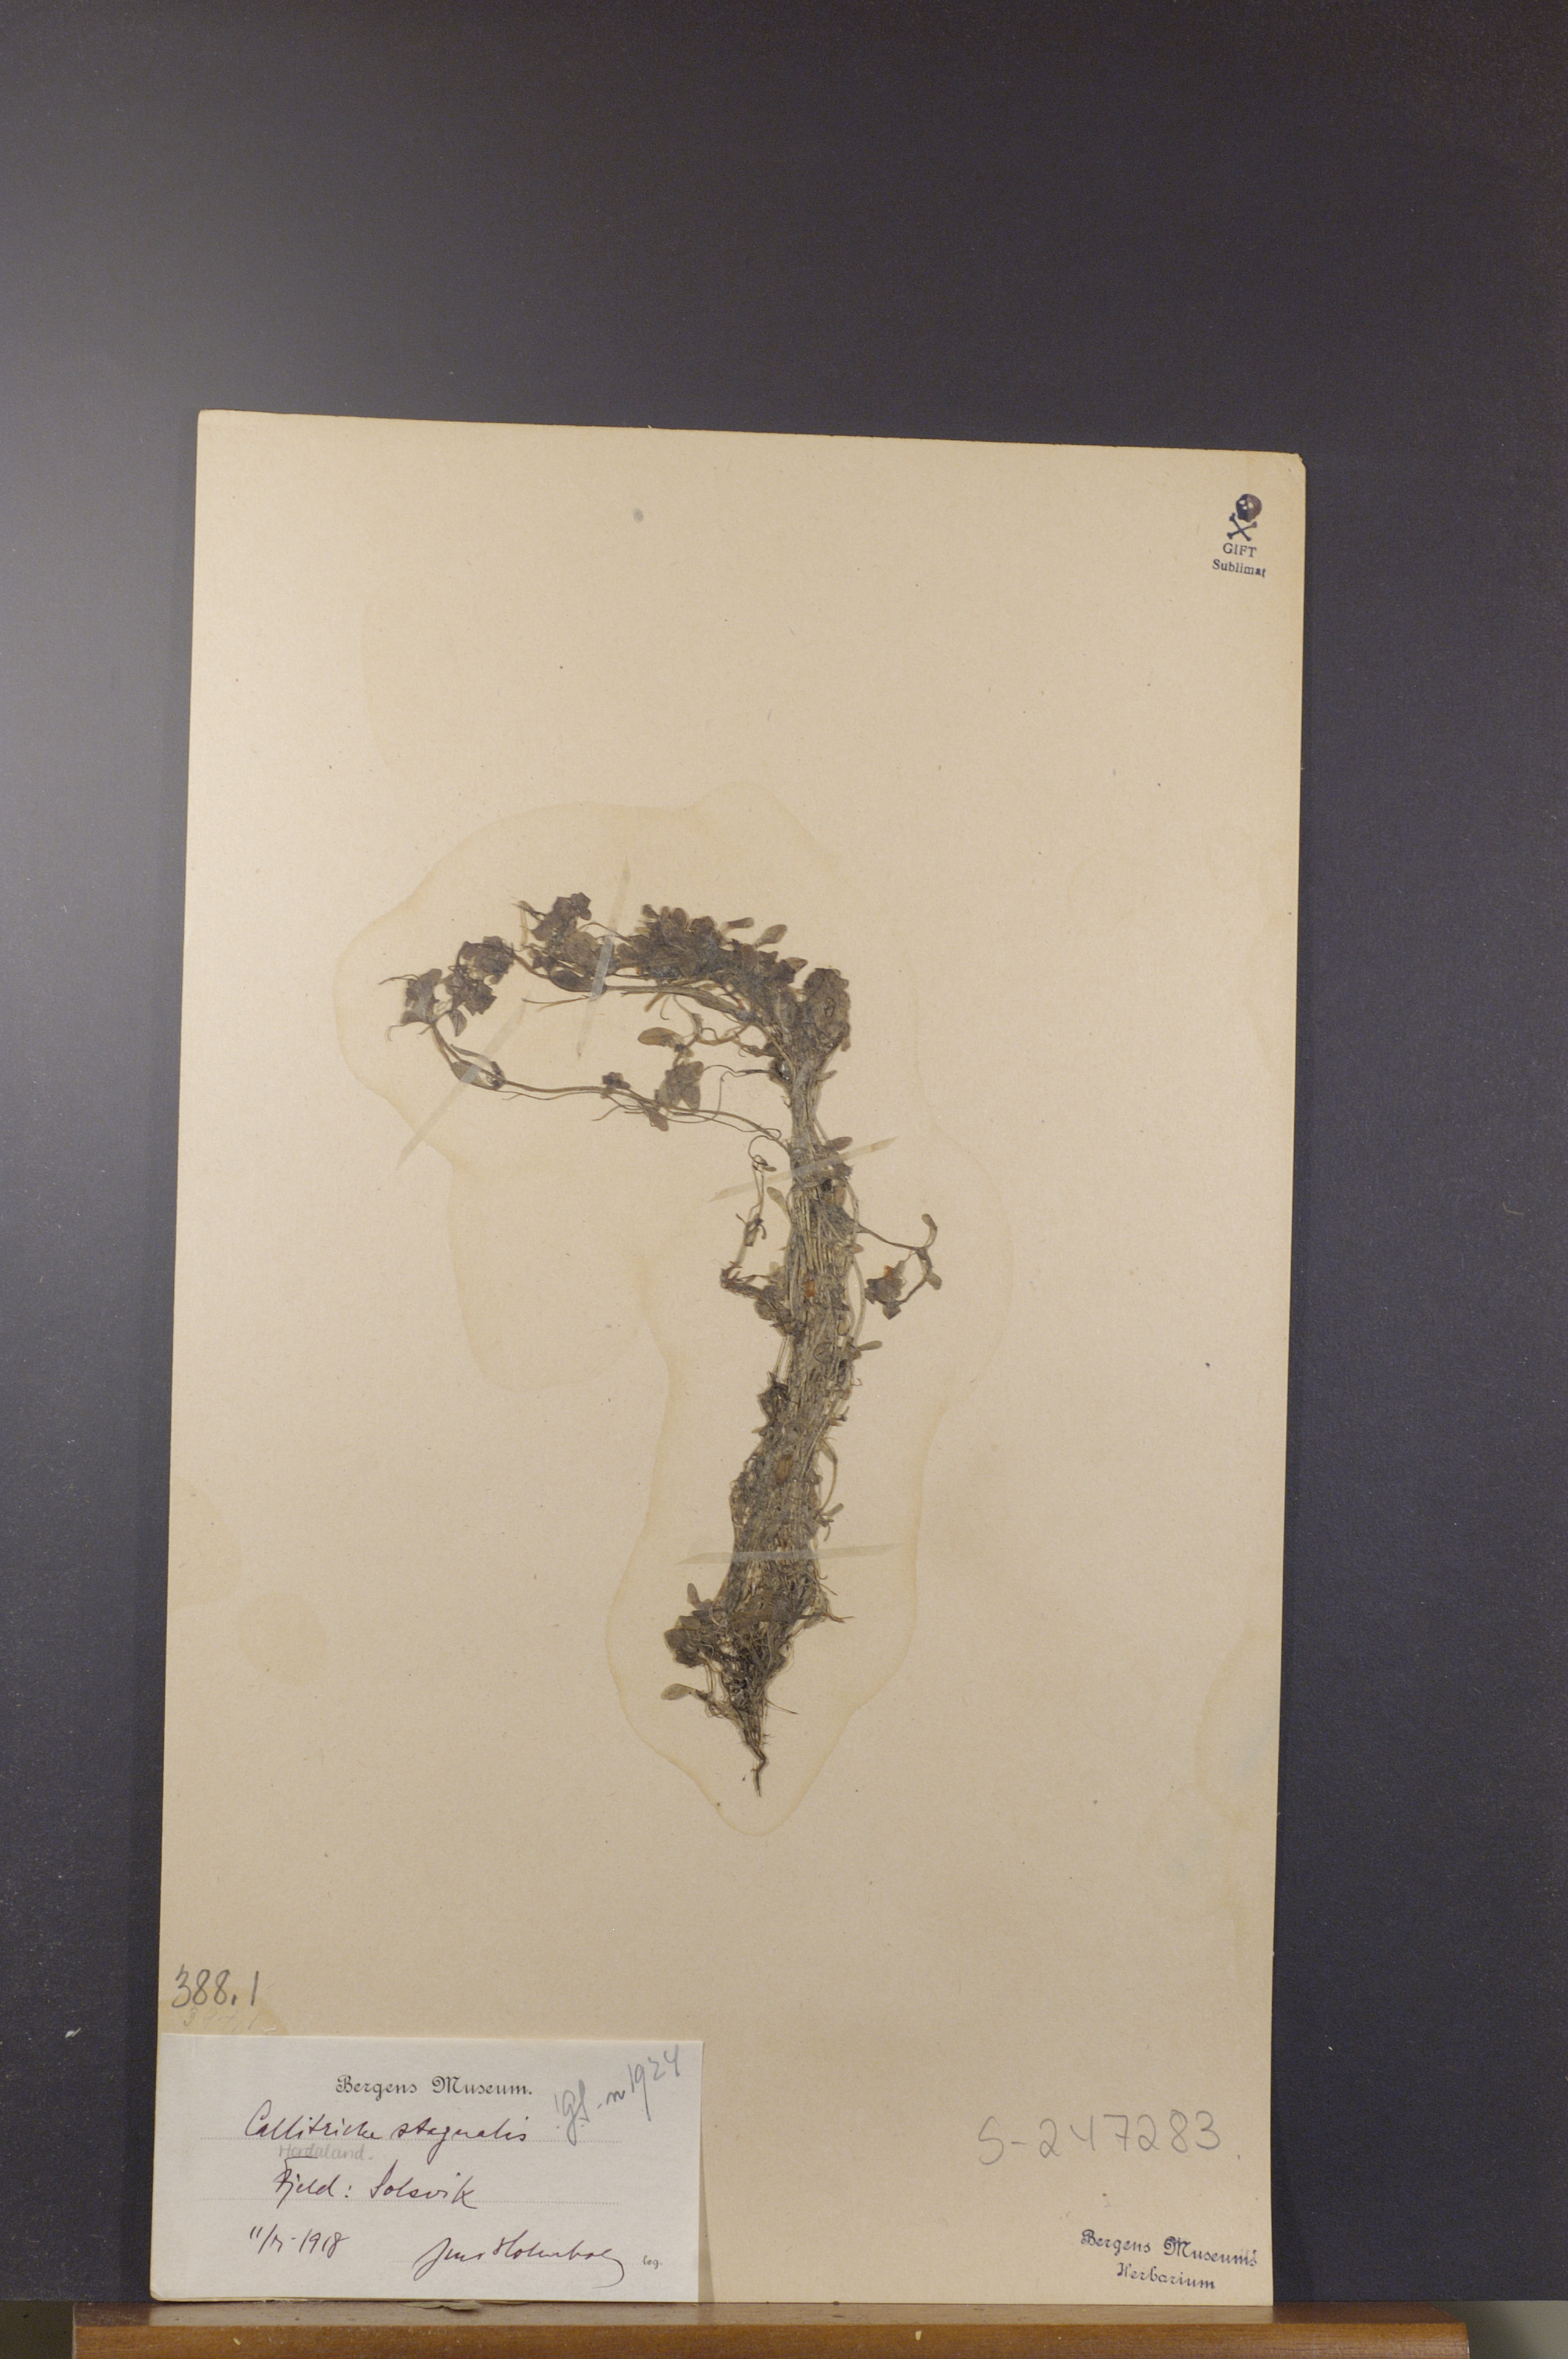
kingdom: Plantae
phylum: Tracheophyta
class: Magnoliopsida
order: Lamiales
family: Plantaginaceae
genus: Callitriche
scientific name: Callitriche stagnalis
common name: Common water-starwort
